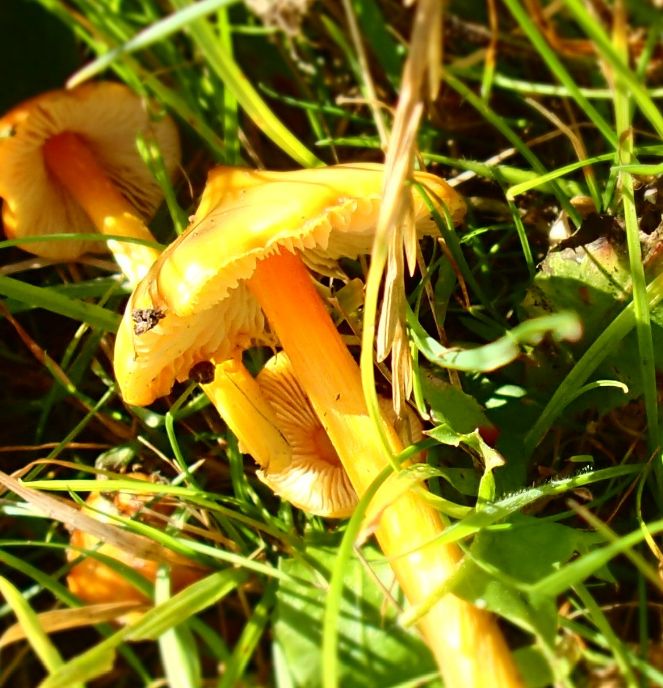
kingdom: Fungi
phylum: Basidiomycota
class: Agaricomycetes
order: Agaricales
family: Hygrophoraceae
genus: Hygrocybe
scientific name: Hygrocybe acutoconica
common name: spidspuklet vokshat
